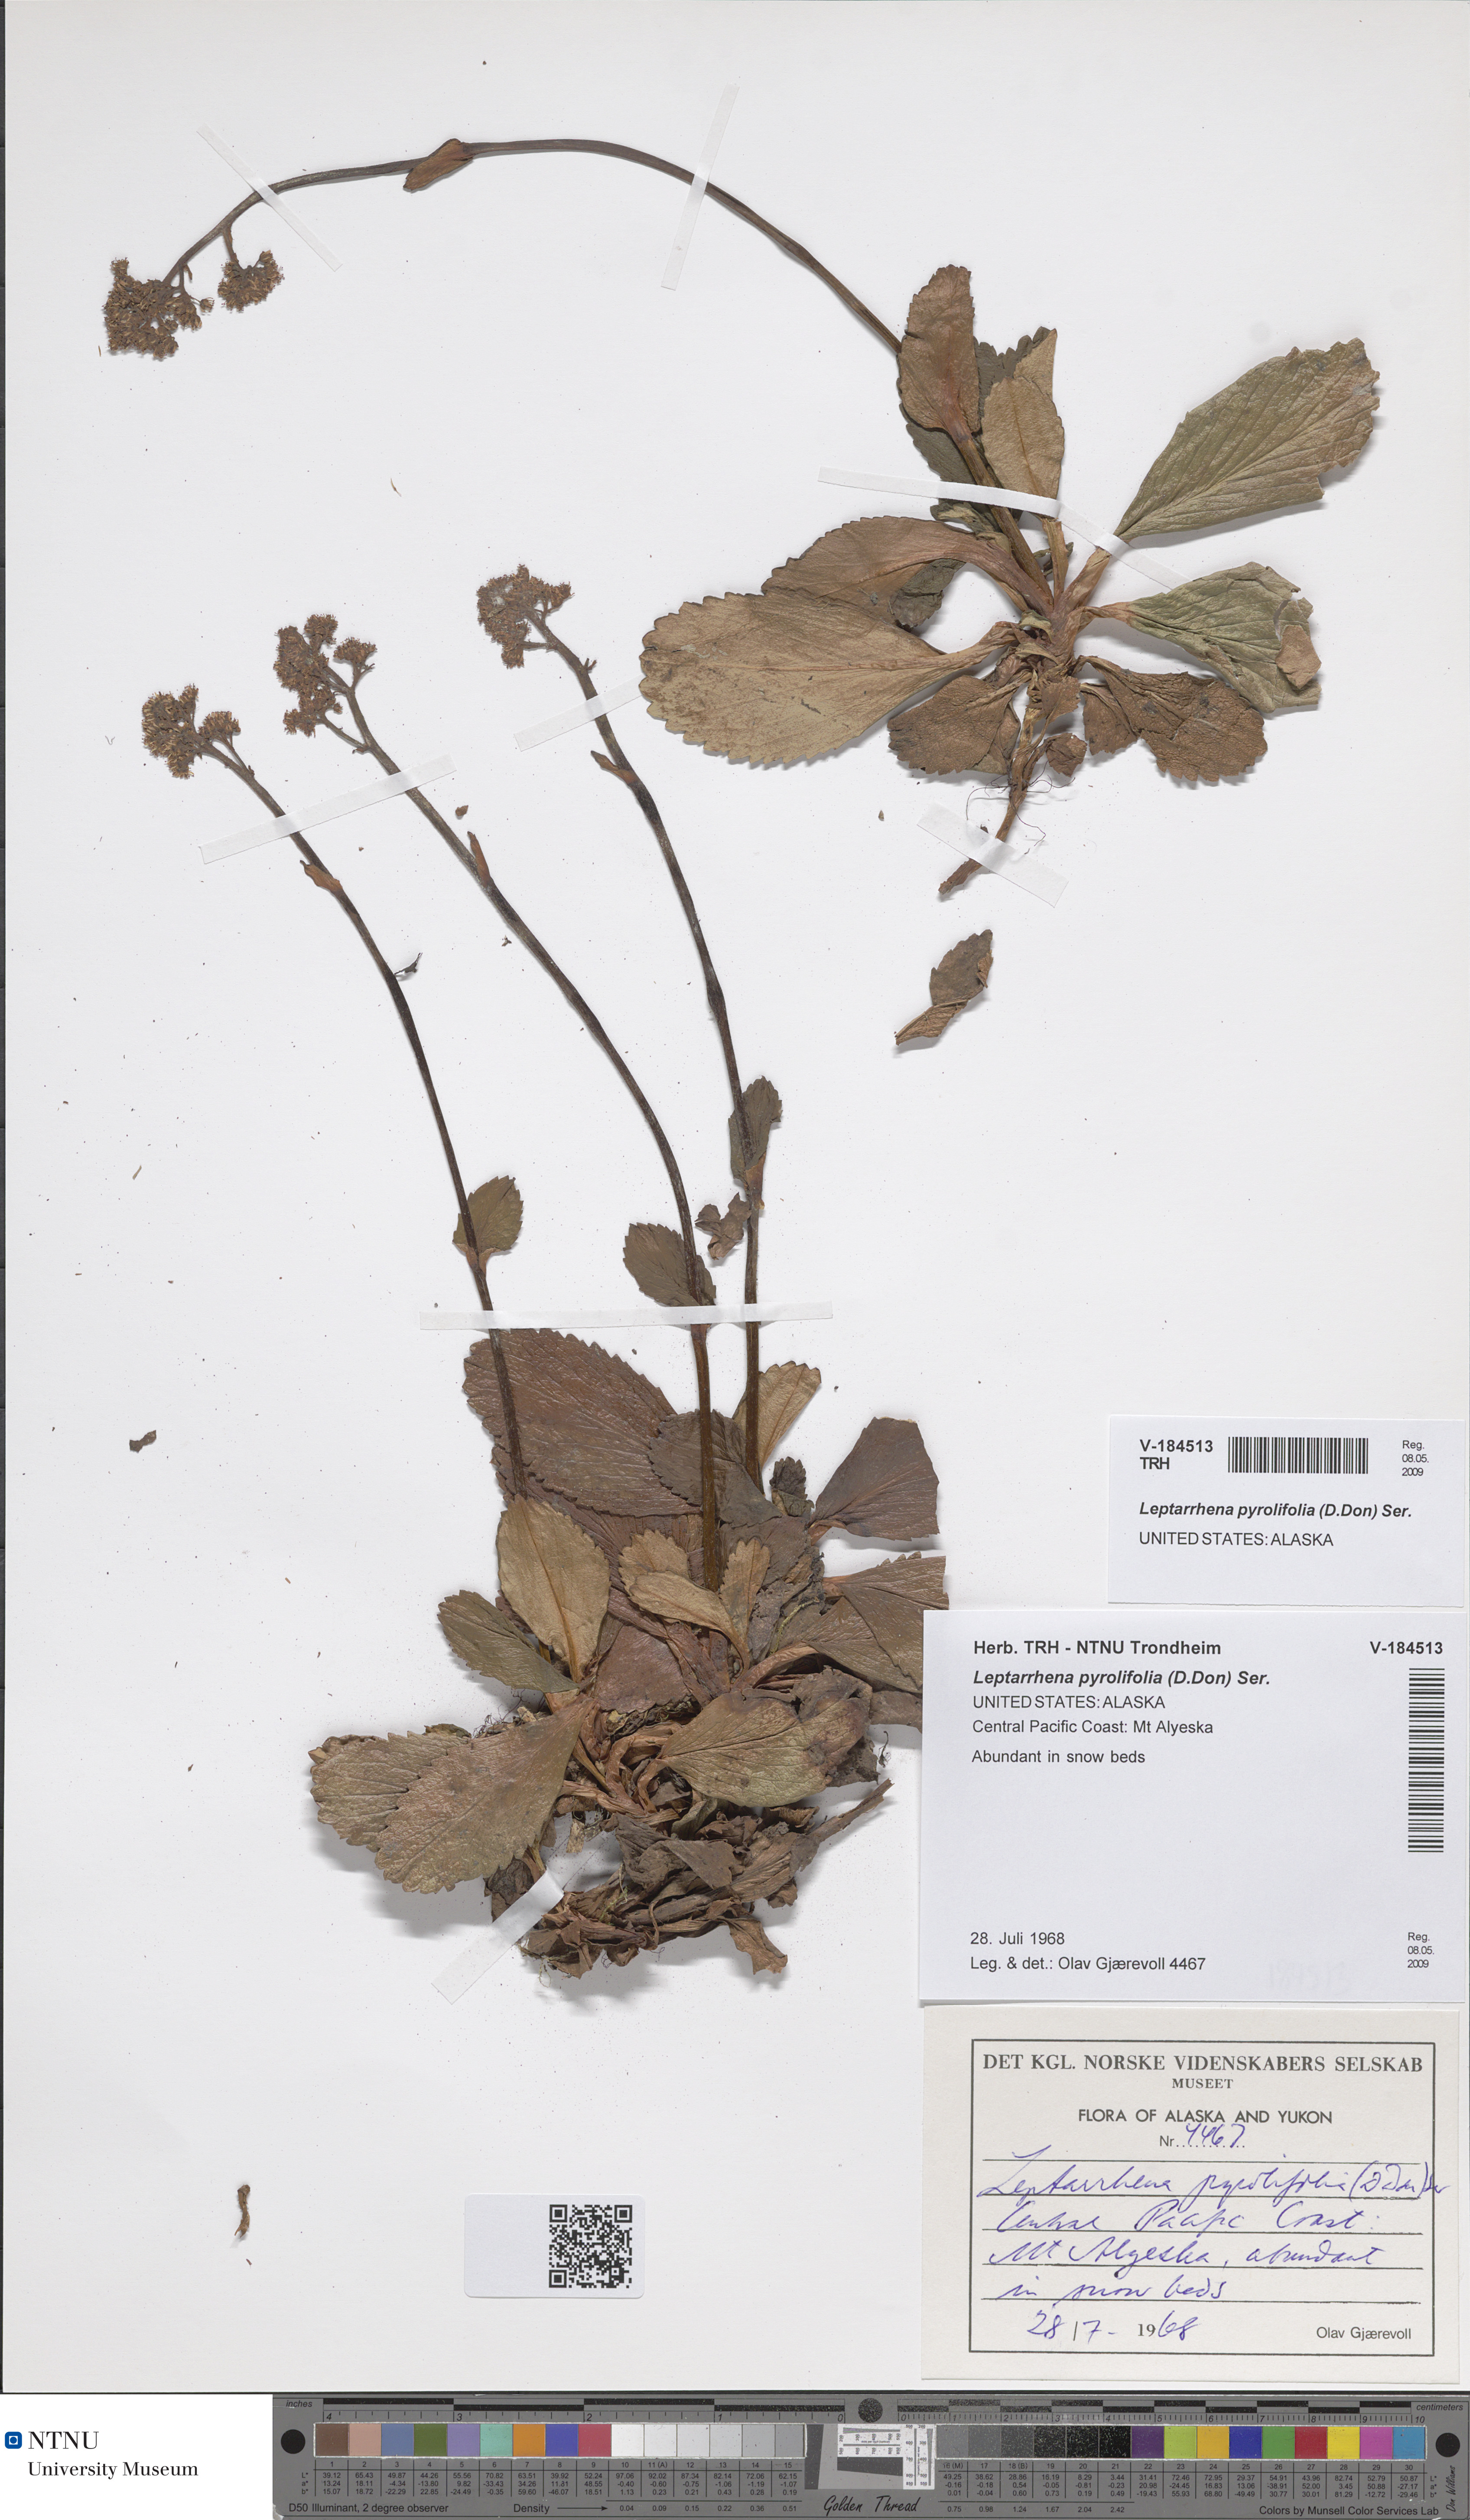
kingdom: Plantae
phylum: Tracheophyta
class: Magnoliopsida
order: Saxifragales
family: Saxifragaceae
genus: Leptarrhena
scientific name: Leptarrhena pyrolifolia
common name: Leatherleaf-saxifrage
